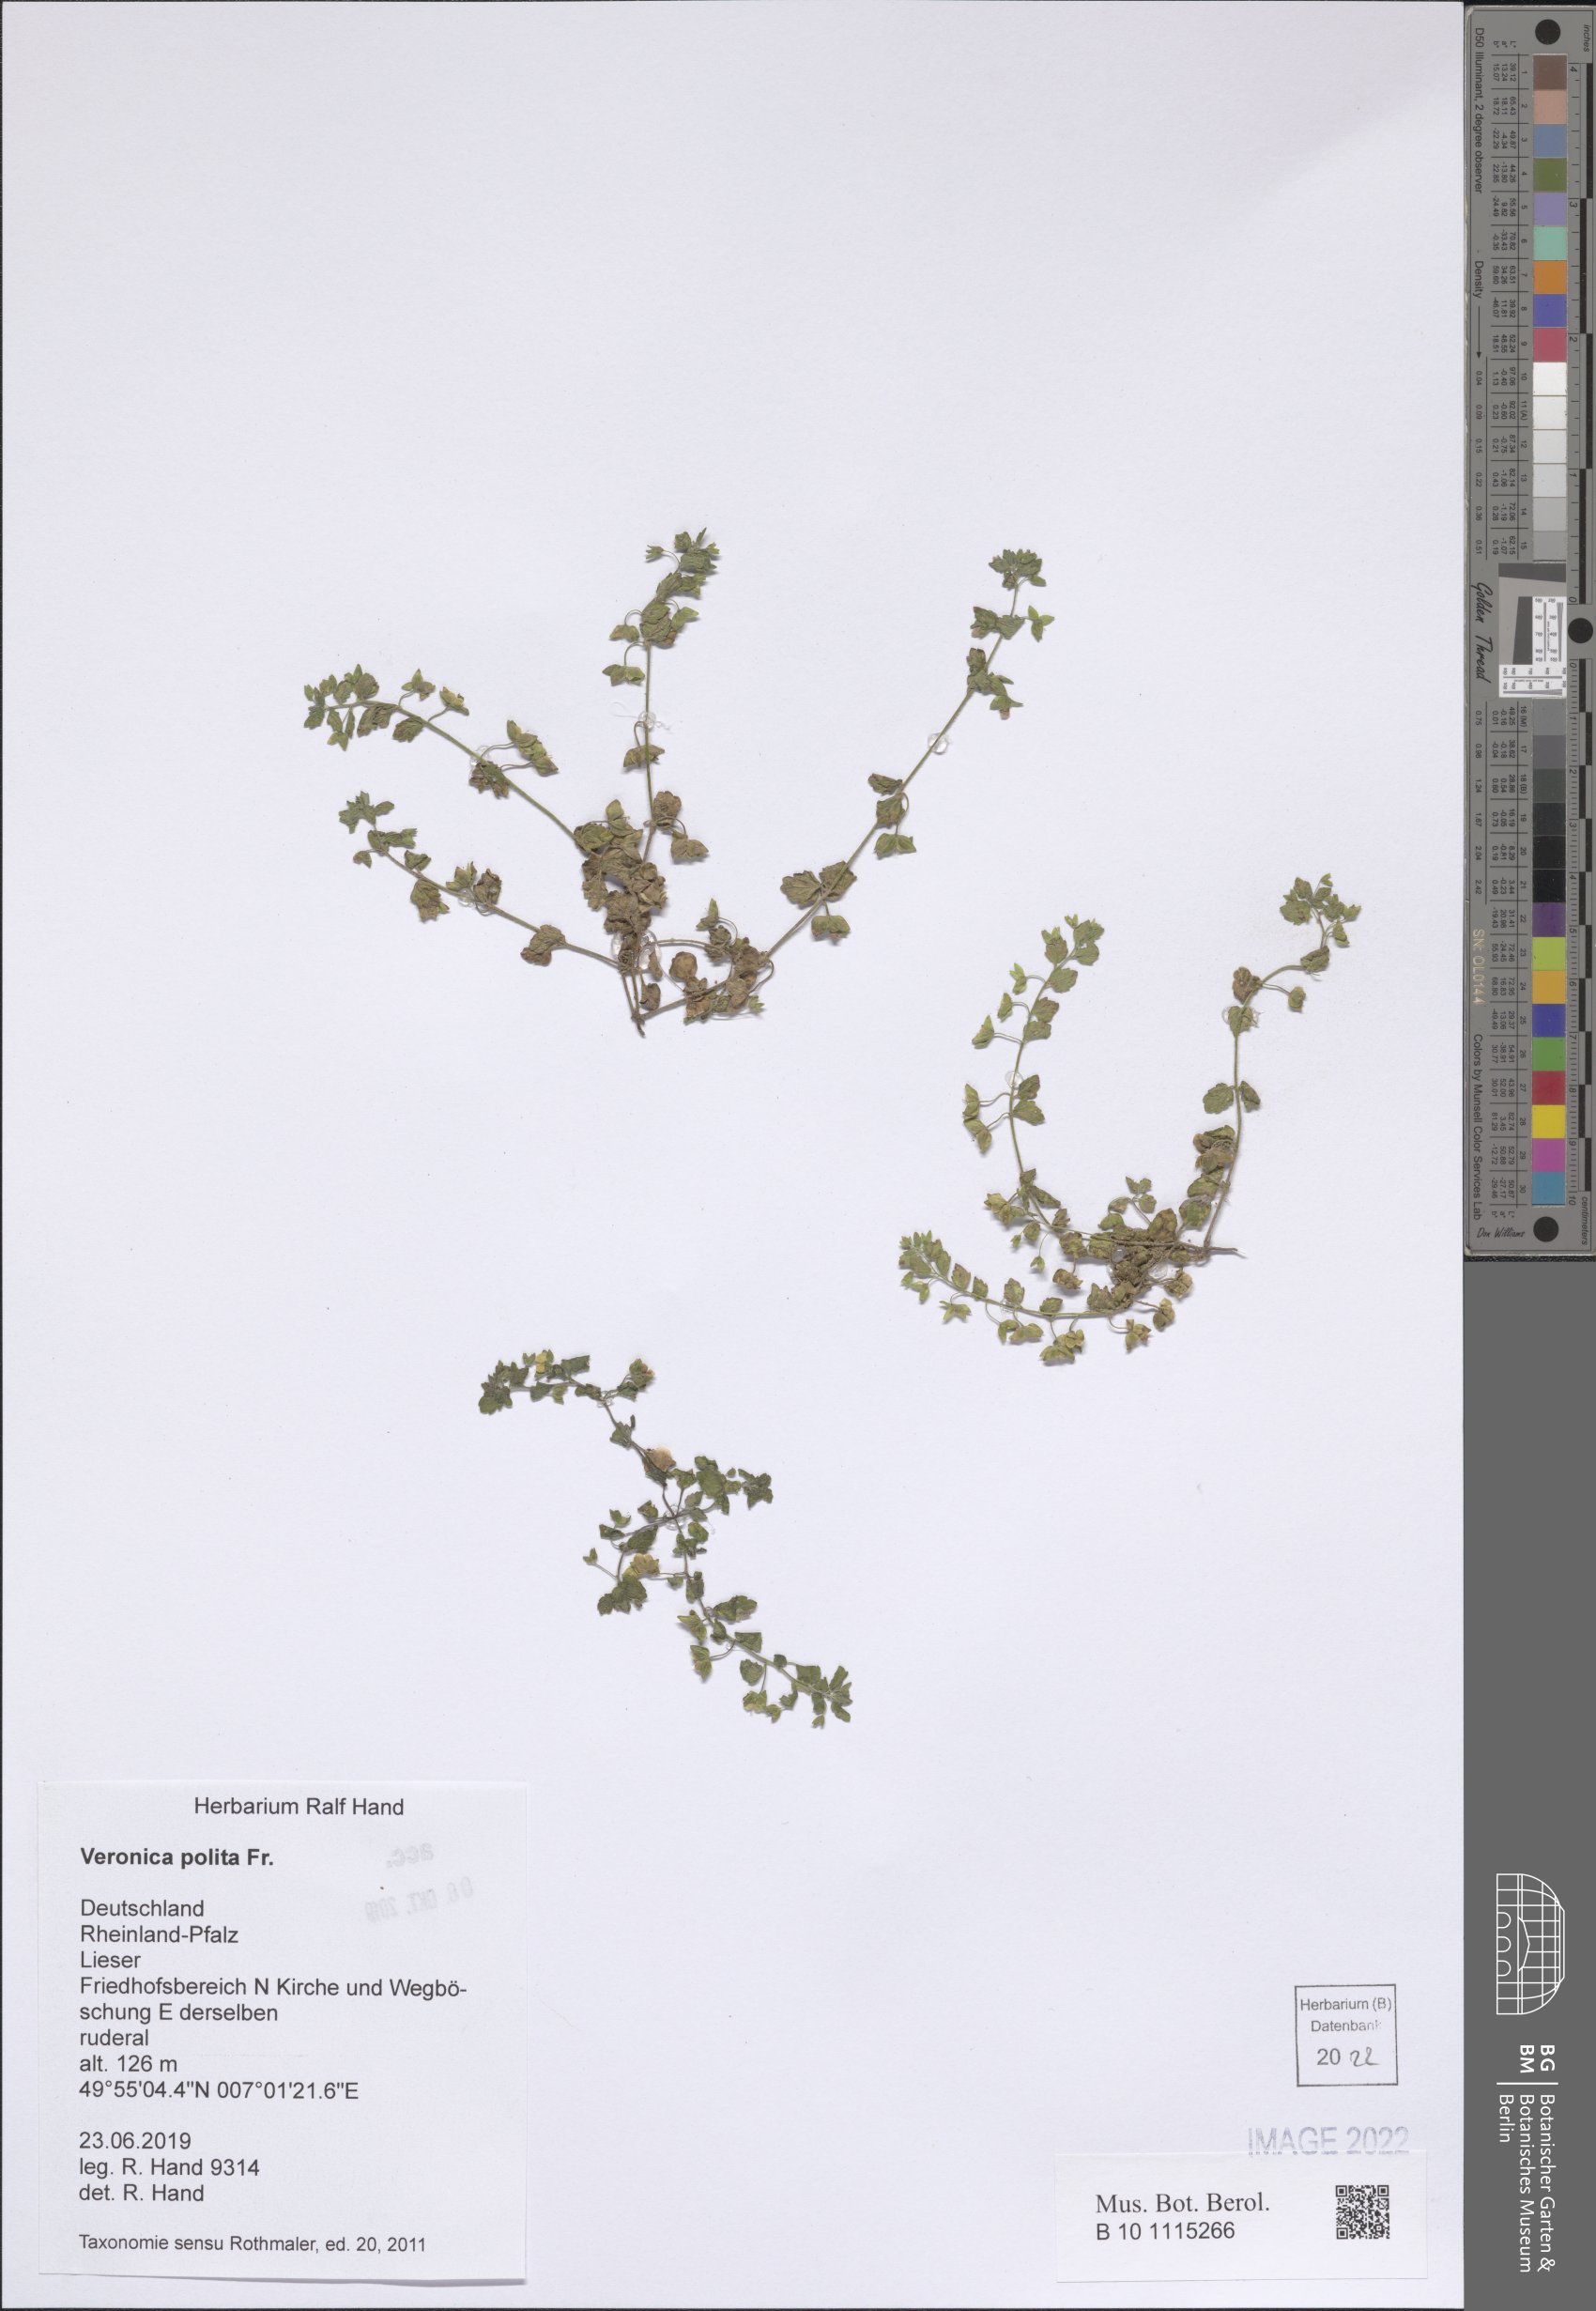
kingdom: Plantae
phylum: Tracheophyta
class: Magnoliopsida
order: Lamiales
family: Plantaginaceae
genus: Veronica
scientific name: Veronica polita
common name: Grey field-speedwell
